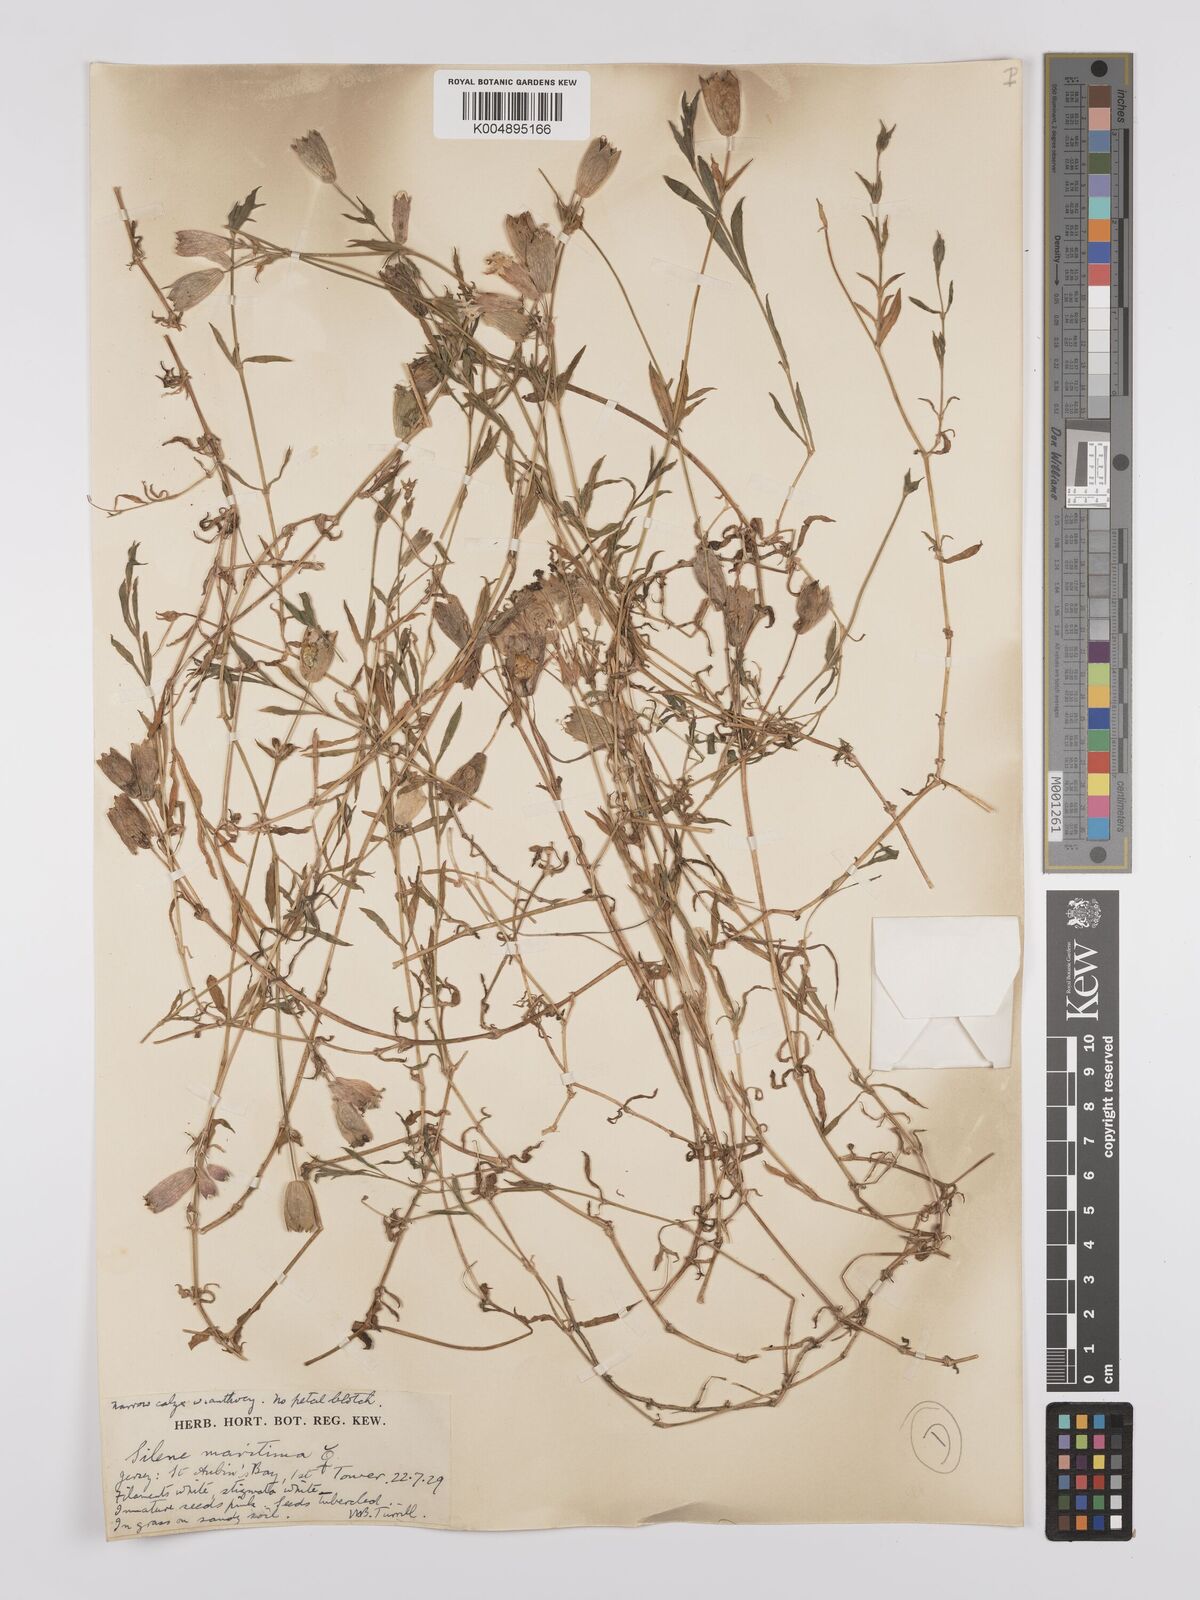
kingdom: Plantae
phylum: Tracheophyta
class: Magnoliopsida
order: Caryophyllales
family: Caryophyllaceae
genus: Silene
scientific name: Silene uniflora
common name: Sea campion
